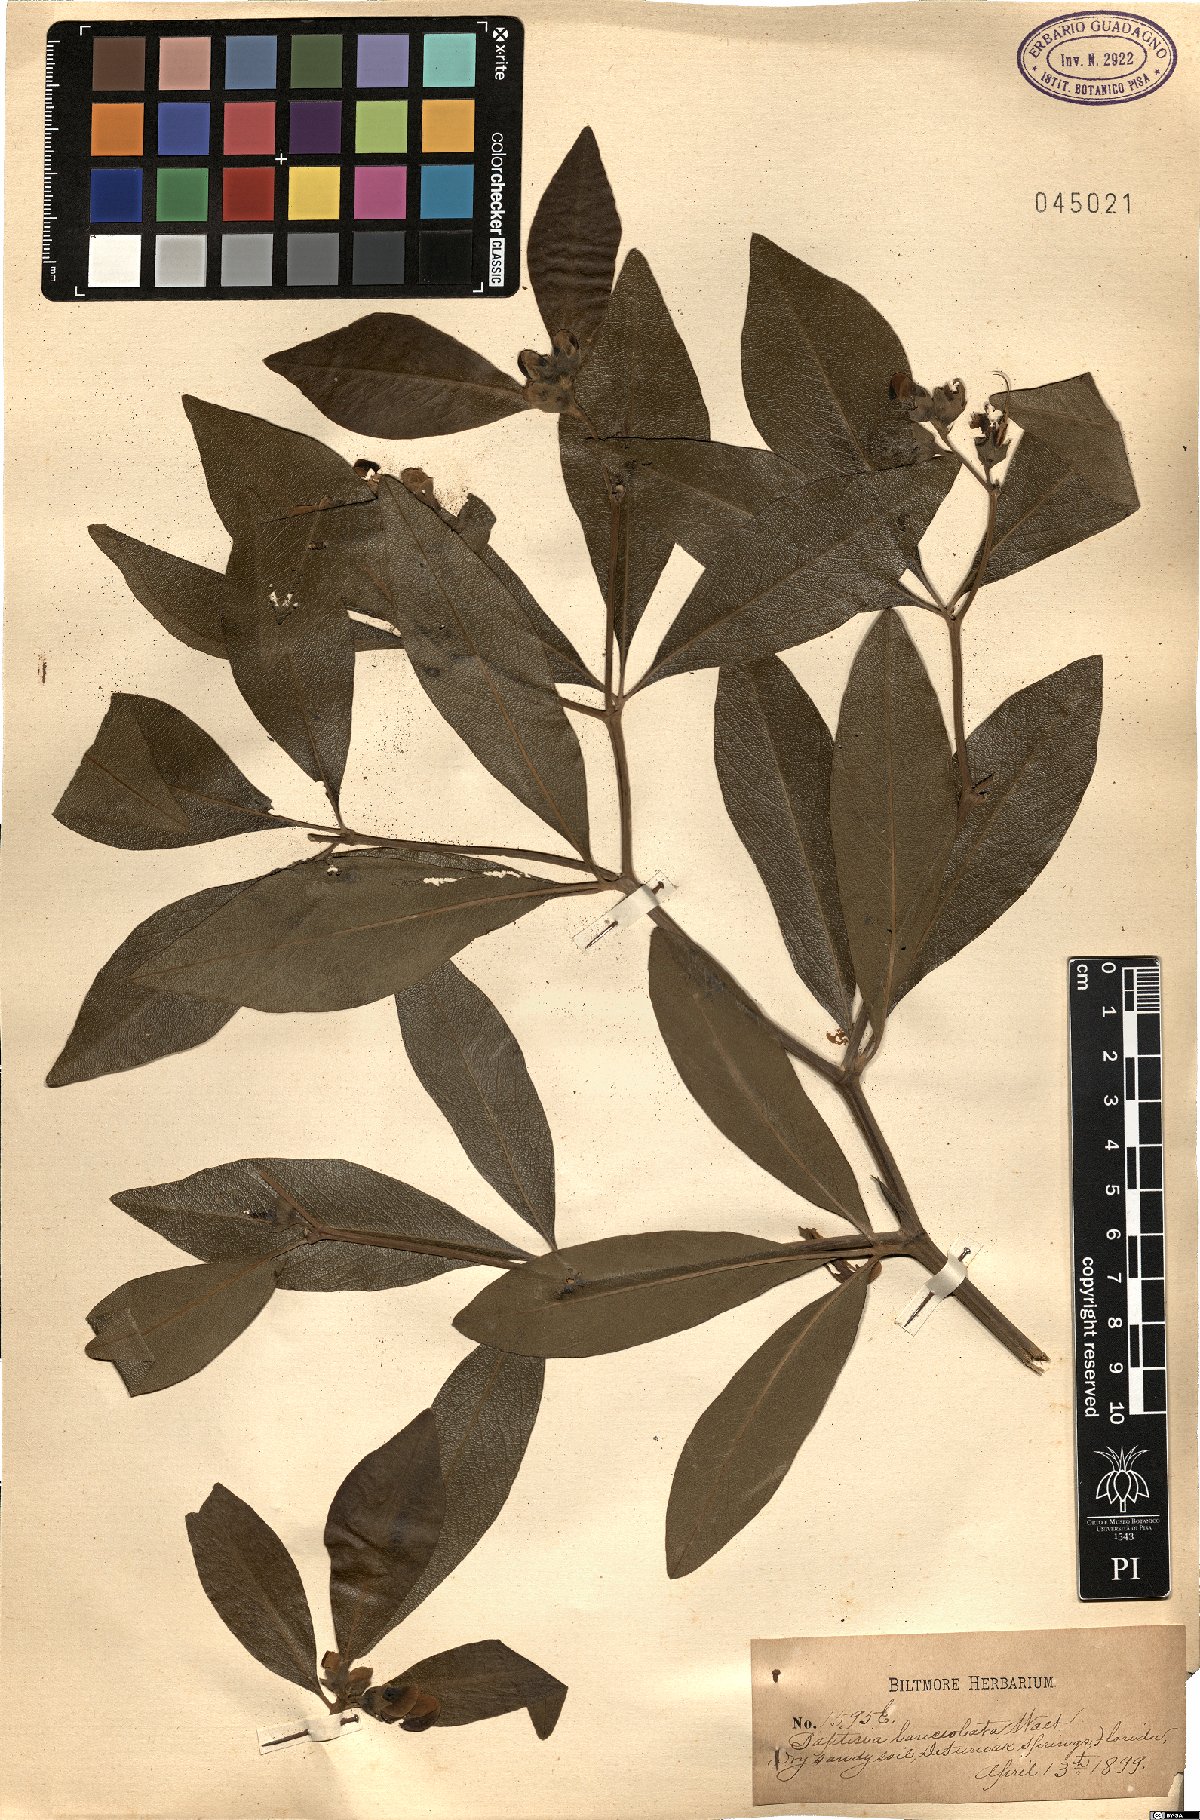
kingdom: Plantae
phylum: Tracheophyta
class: Magnoliopsida
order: Fabales
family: Fabaceae
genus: Baptisia
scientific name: Baptisia lanceolata
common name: Gopherweed
